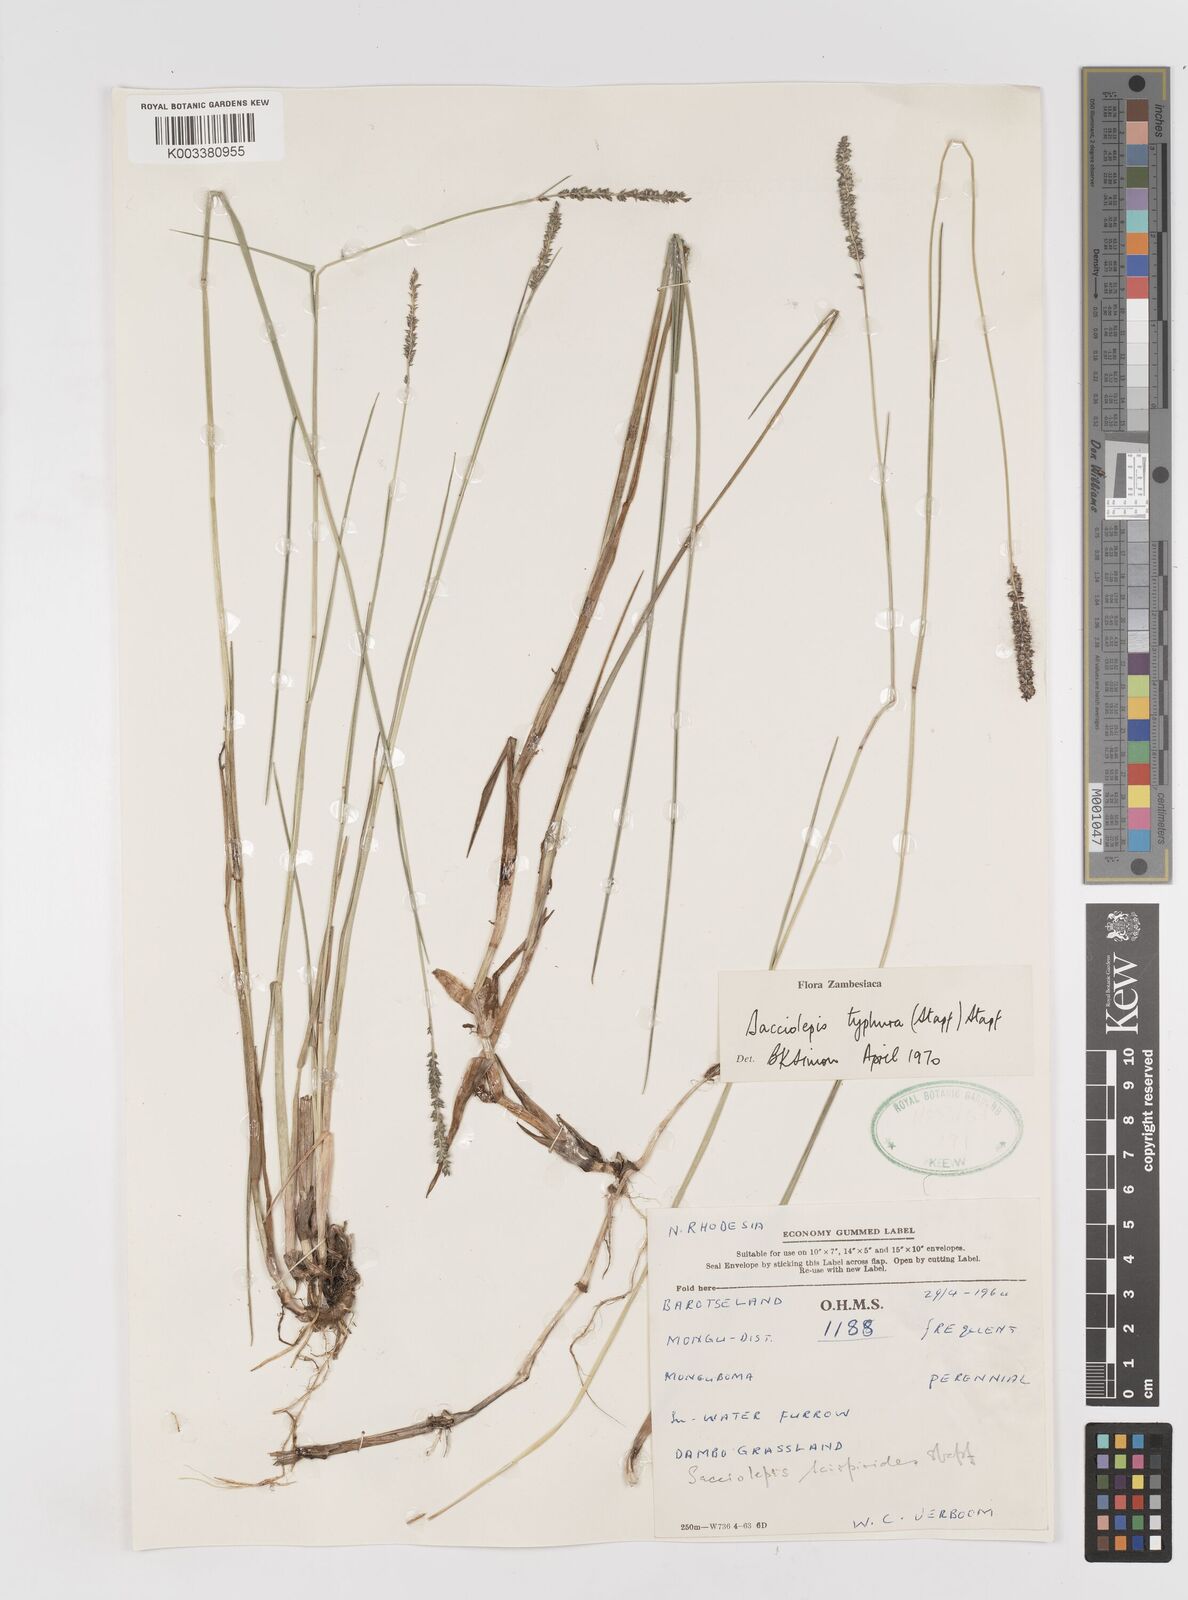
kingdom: Plantae
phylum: Tracheophyta
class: Liliopsida
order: Poales
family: Poaceae
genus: Sacciolepis
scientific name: Sacciolepis typhura
